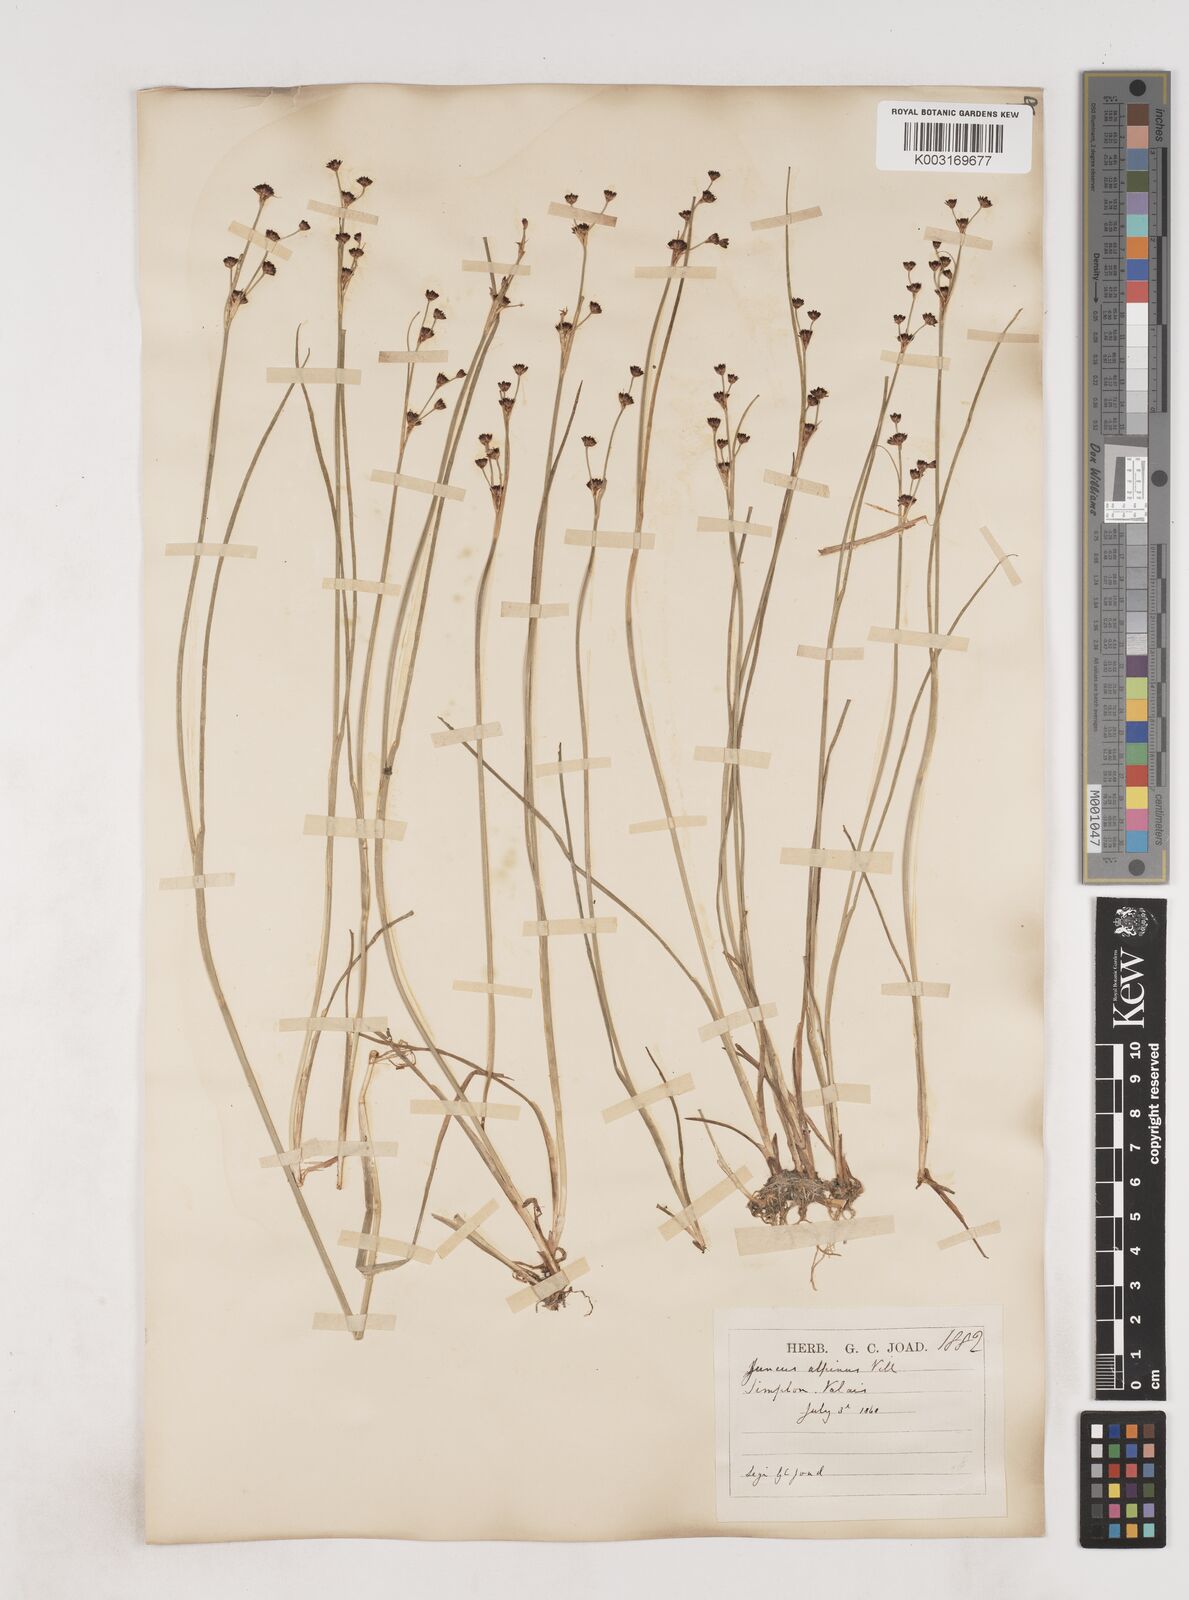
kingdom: Plantae
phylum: Tracheophyta
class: Liliopsida
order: Poales
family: Juncaceae
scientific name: Juncaceae
